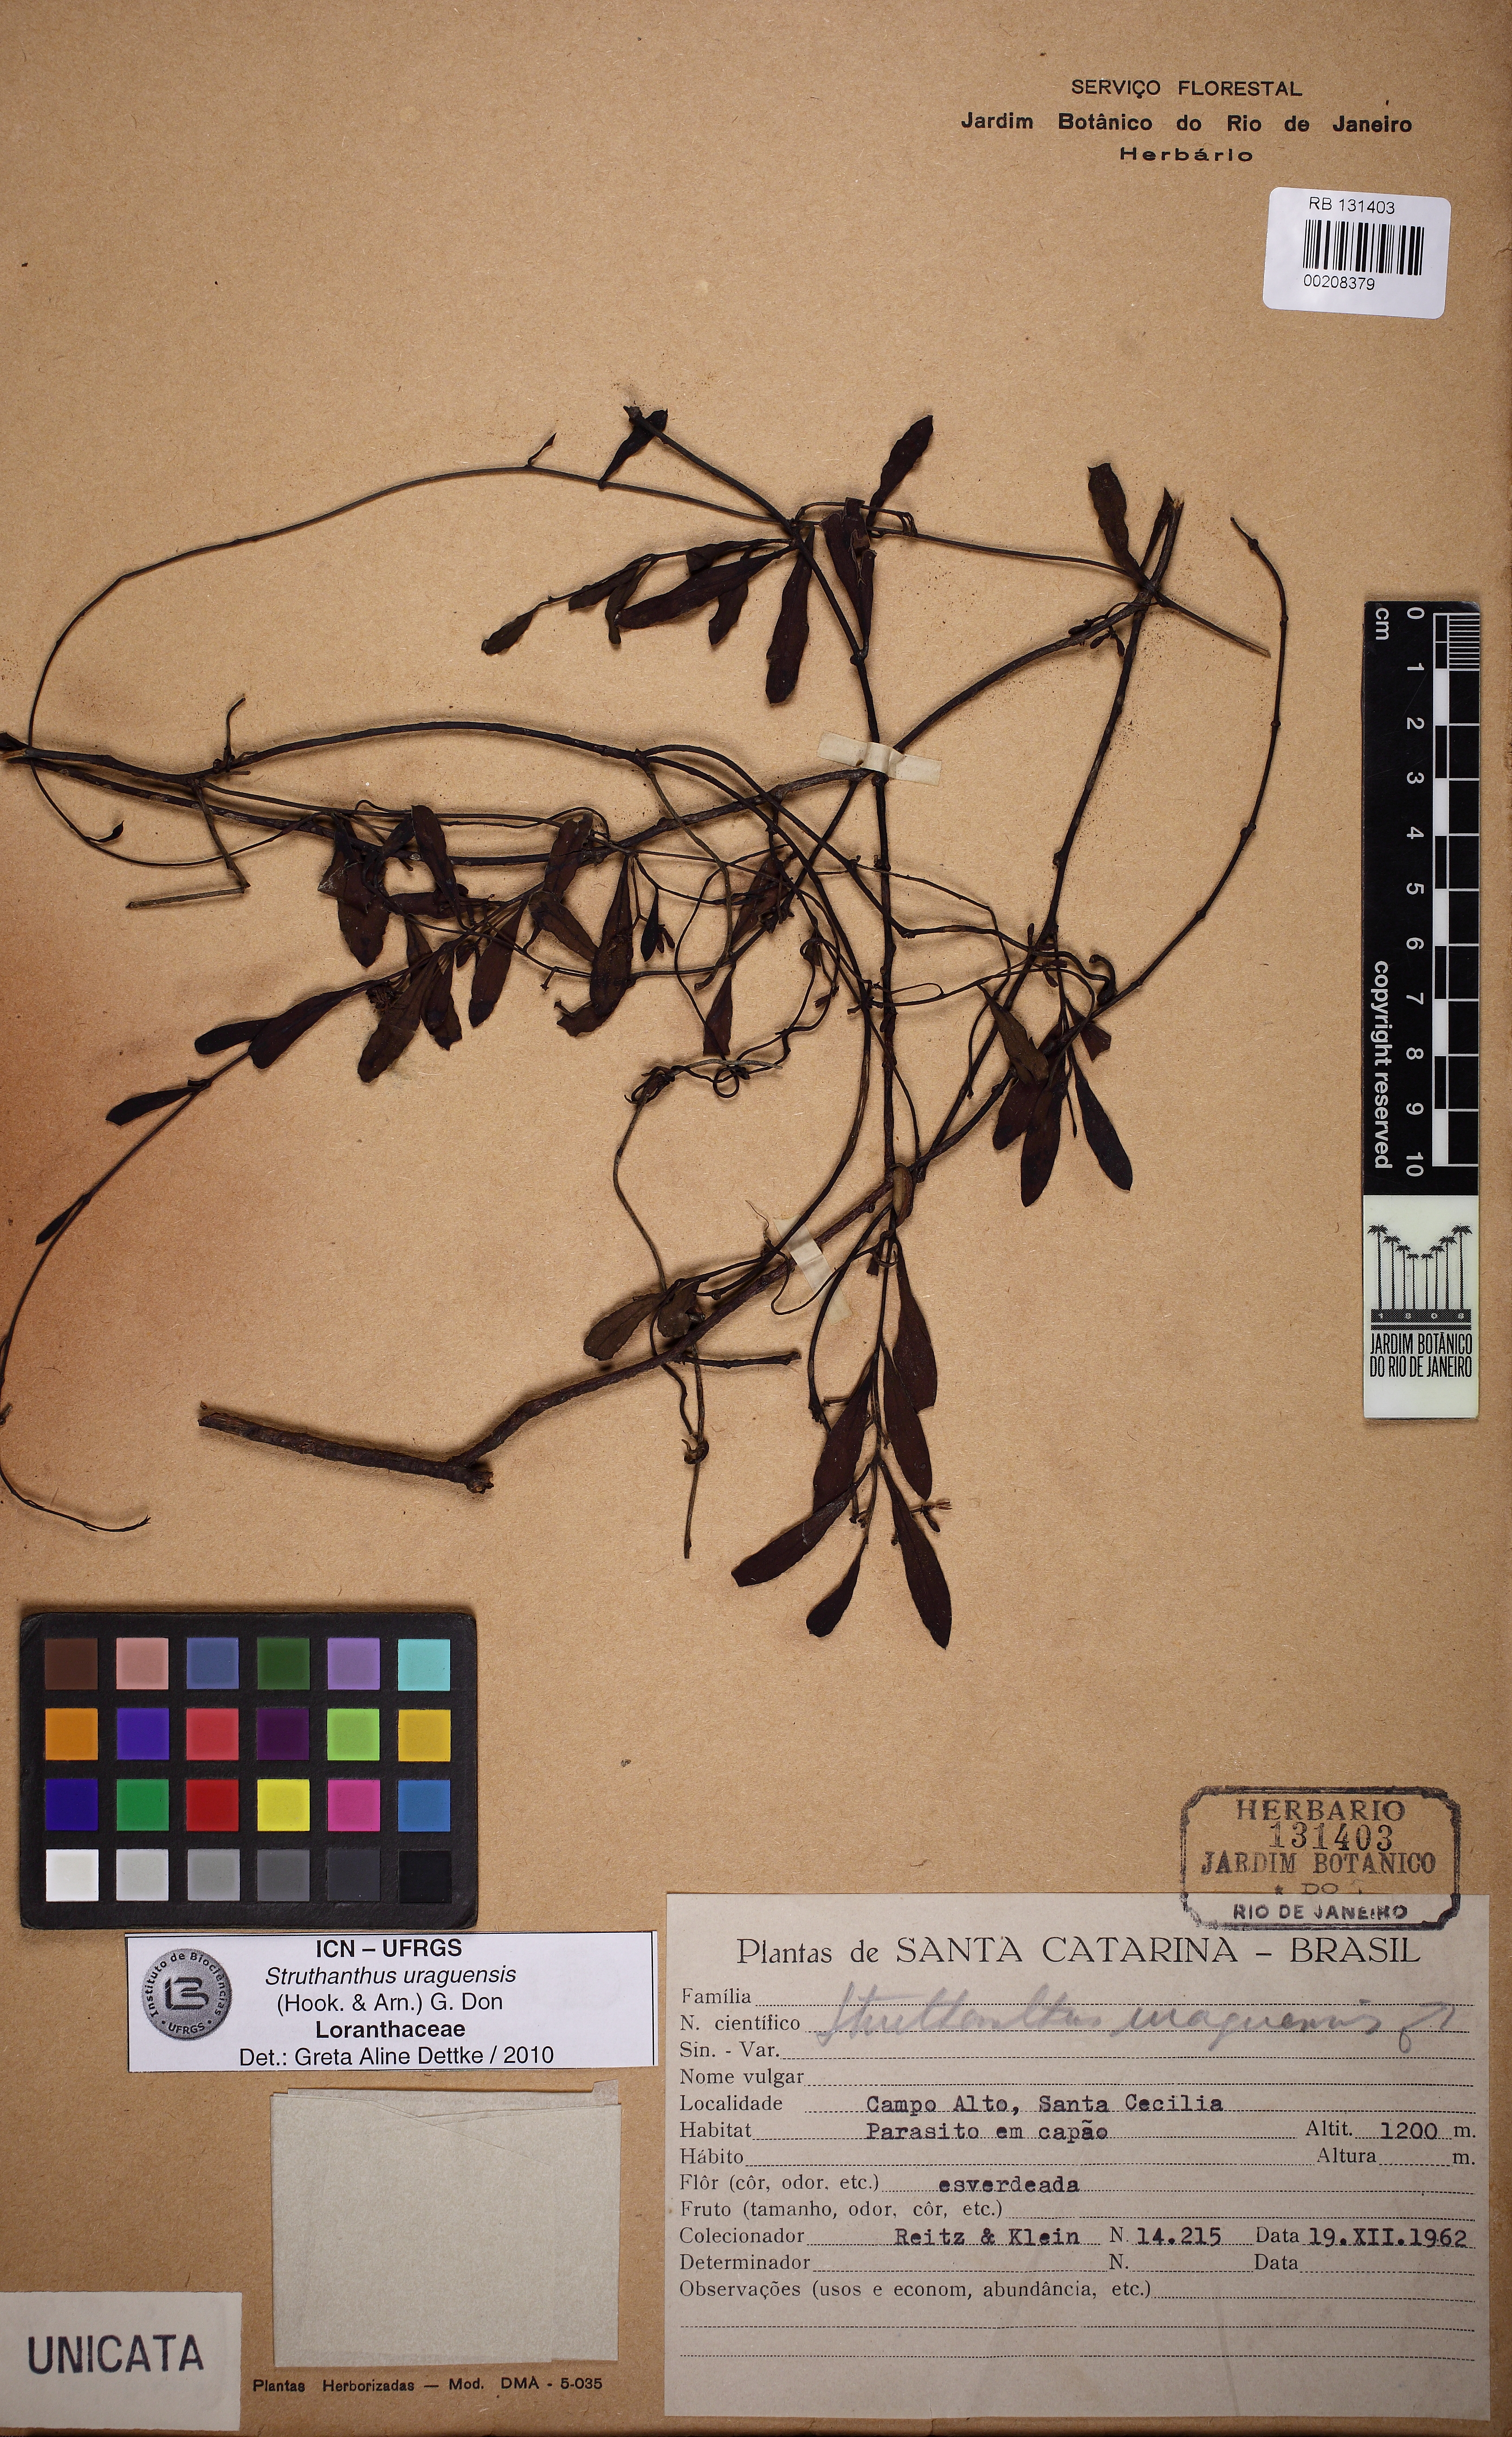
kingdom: Plantae
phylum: Tracheophyta
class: Magnoliopsida
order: Santalales
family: Loranthaceae
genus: Struthanthus
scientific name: Struthanthus uraguensis
